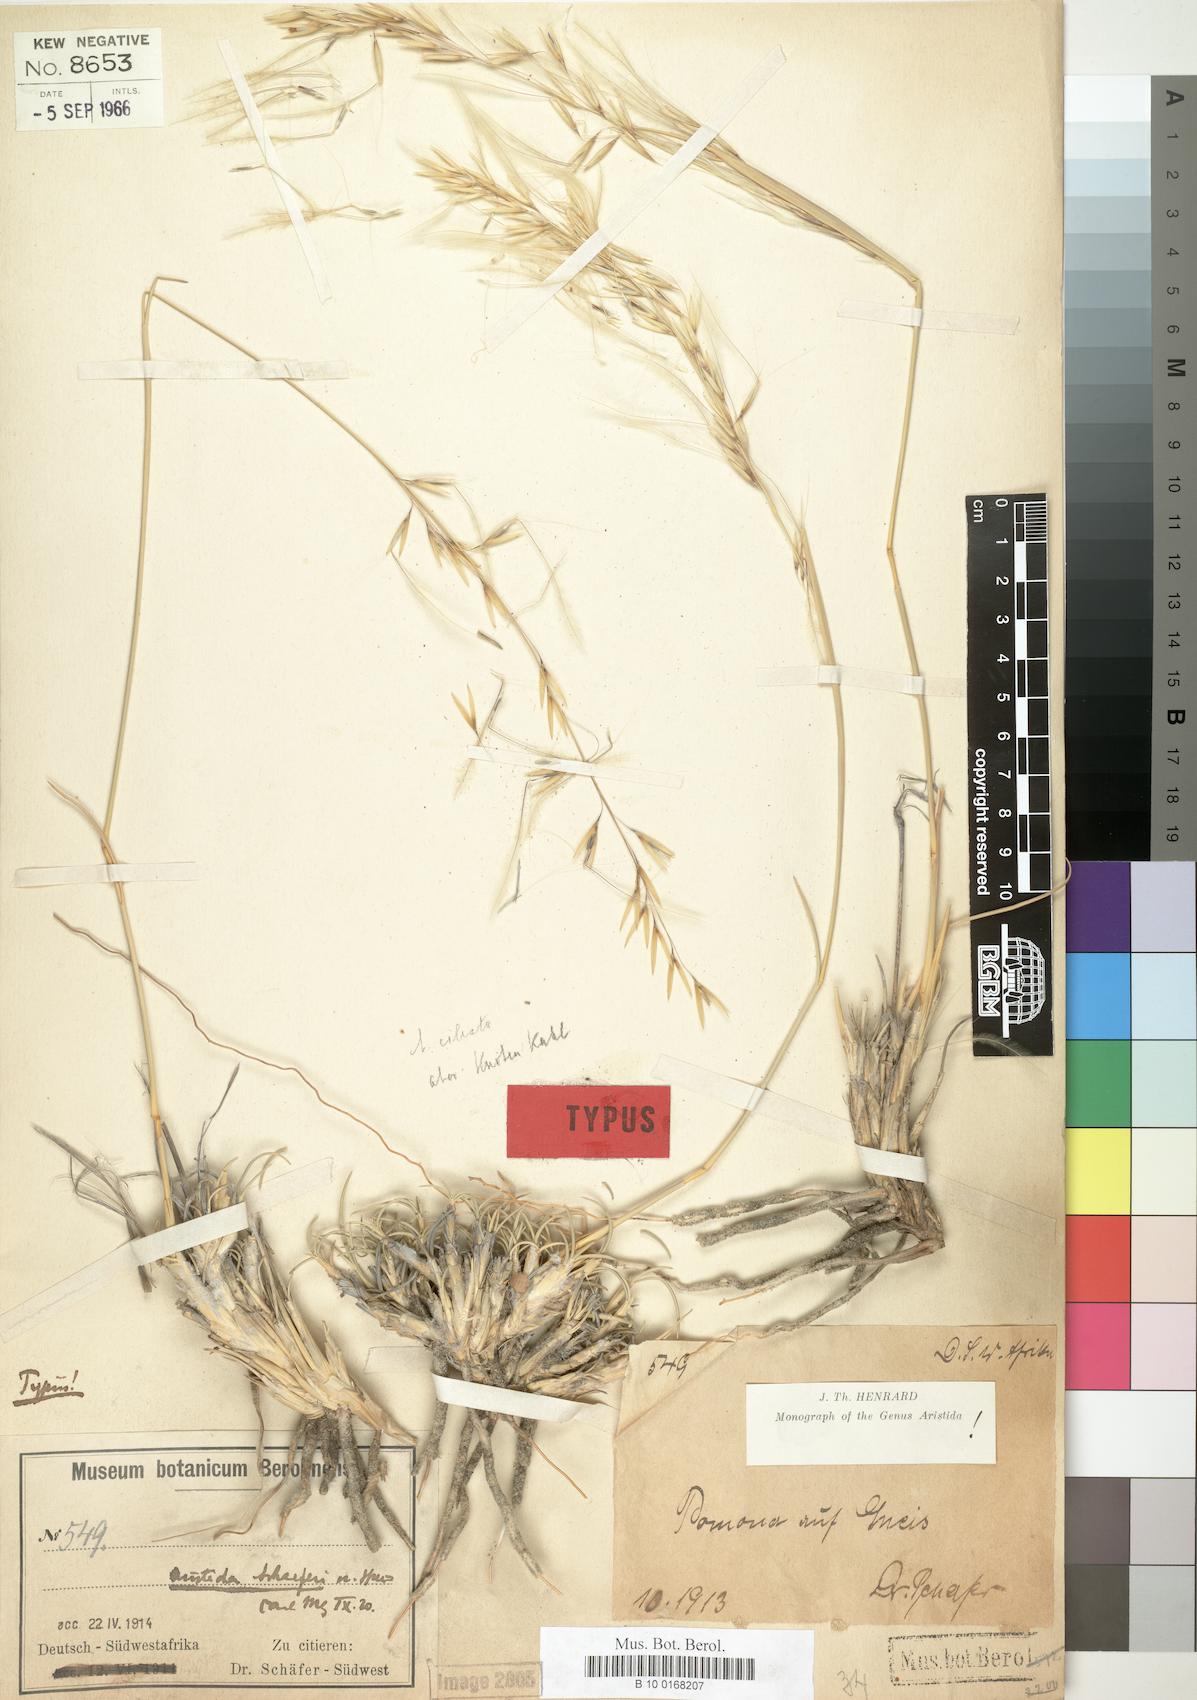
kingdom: Plantae
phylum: Tracheophyta
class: Liliopsida
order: Poales
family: Poaceae
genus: Stipagrostis
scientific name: Stipagrostis schaeferi
